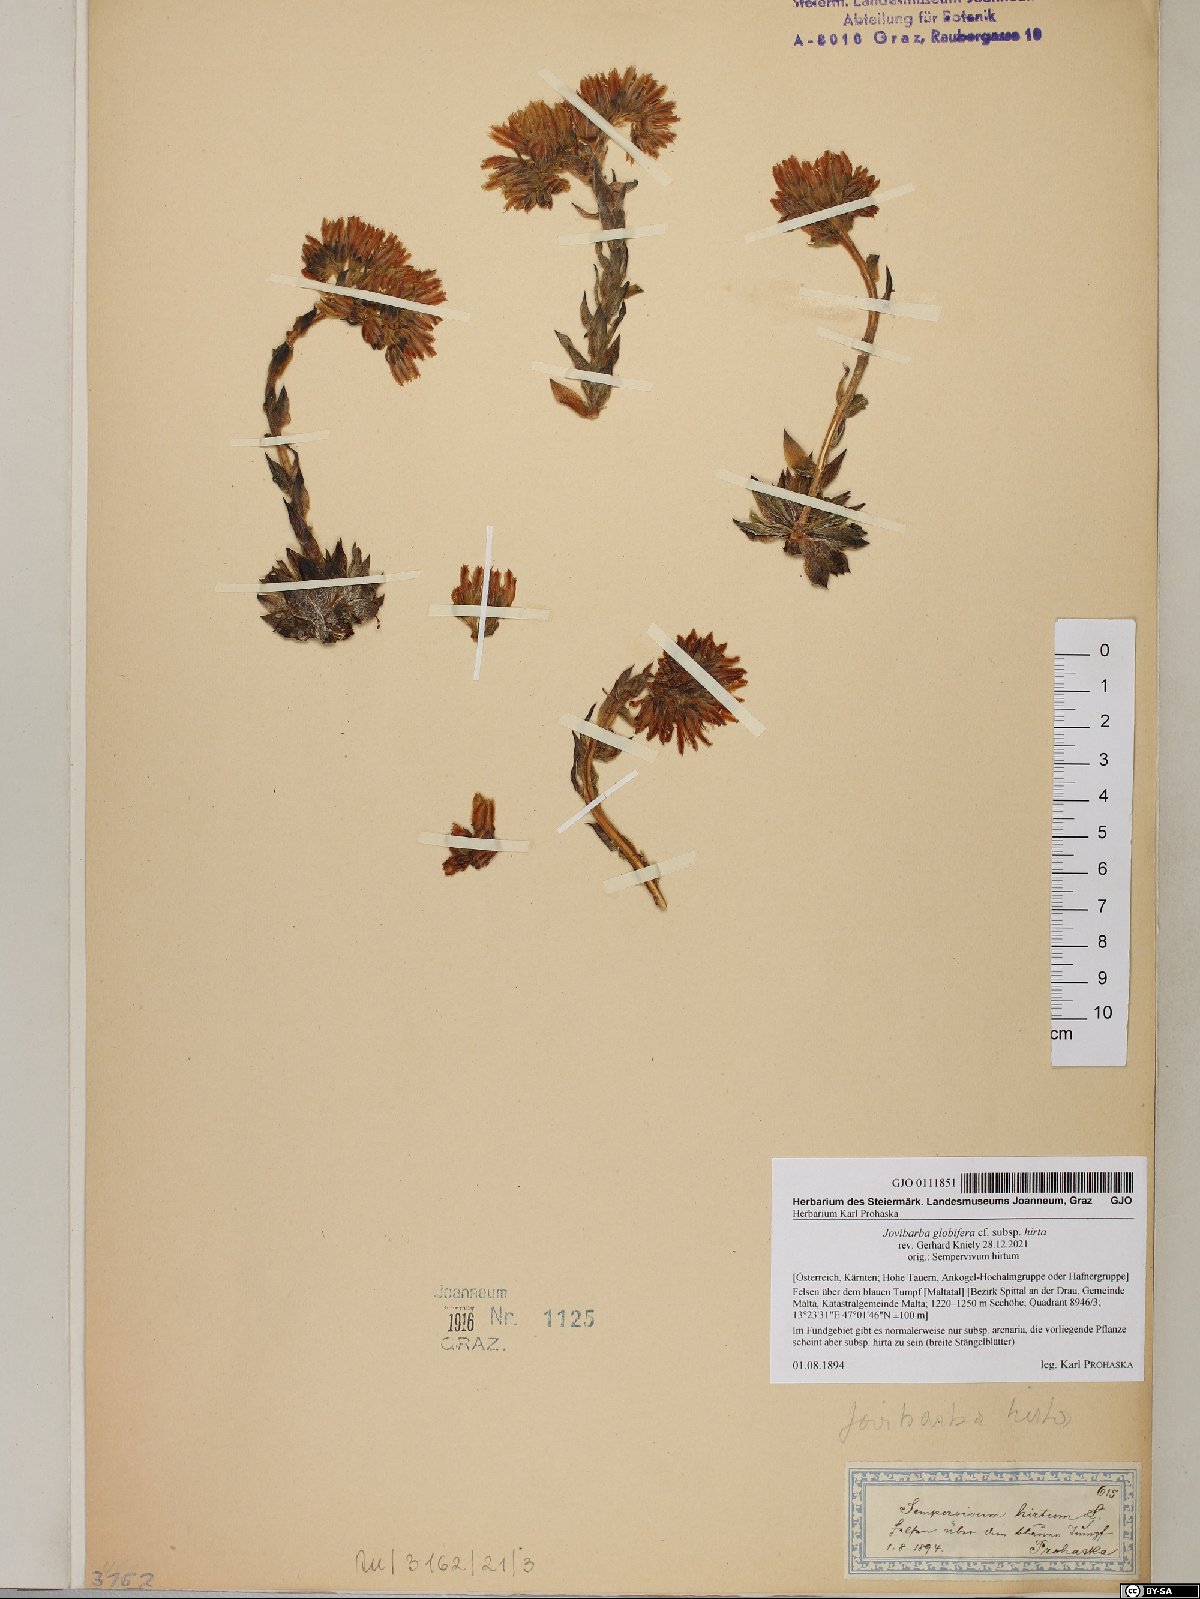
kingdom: Plantae
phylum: Tracheophyta
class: Magnoliopsida
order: Saxifragales
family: Crassulaceae
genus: Sempervivum
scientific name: Sempervivum globiferum
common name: Rolling hen-and-chicks
